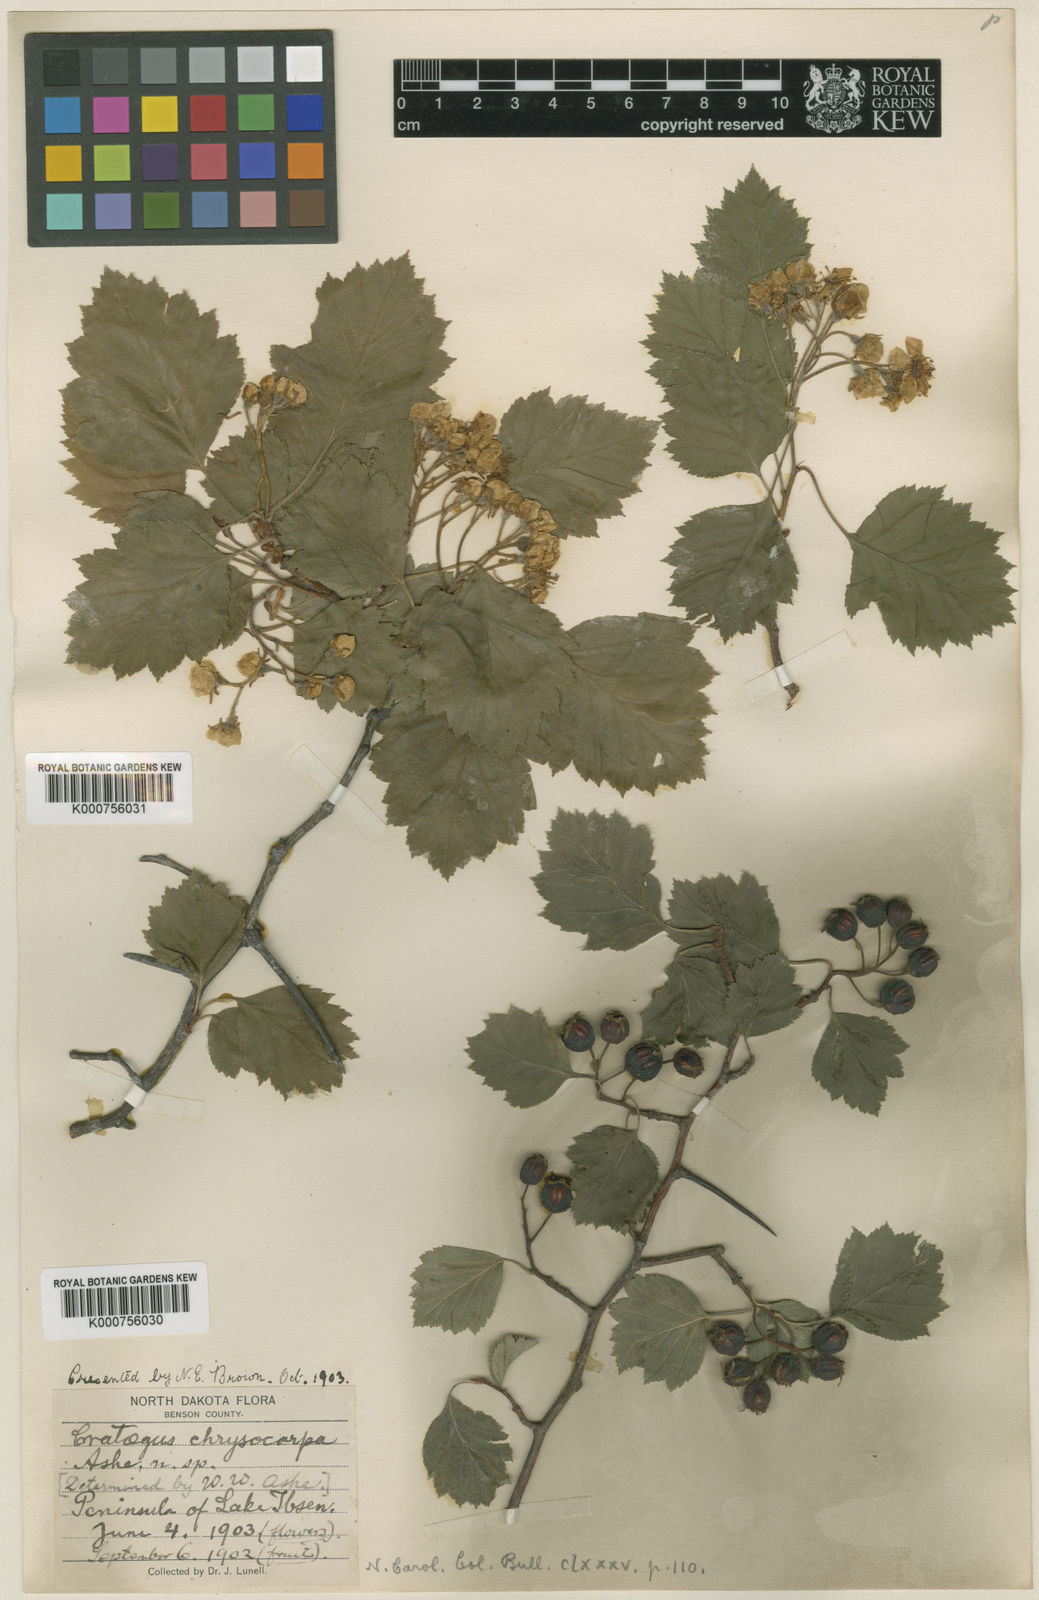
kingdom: Plantae
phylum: Tracheophyta
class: Magnoliopsida
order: Rosales
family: Rosaceae
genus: Crataegus
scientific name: Crataegus chrysocarpa
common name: Fire-berry hawthorn
